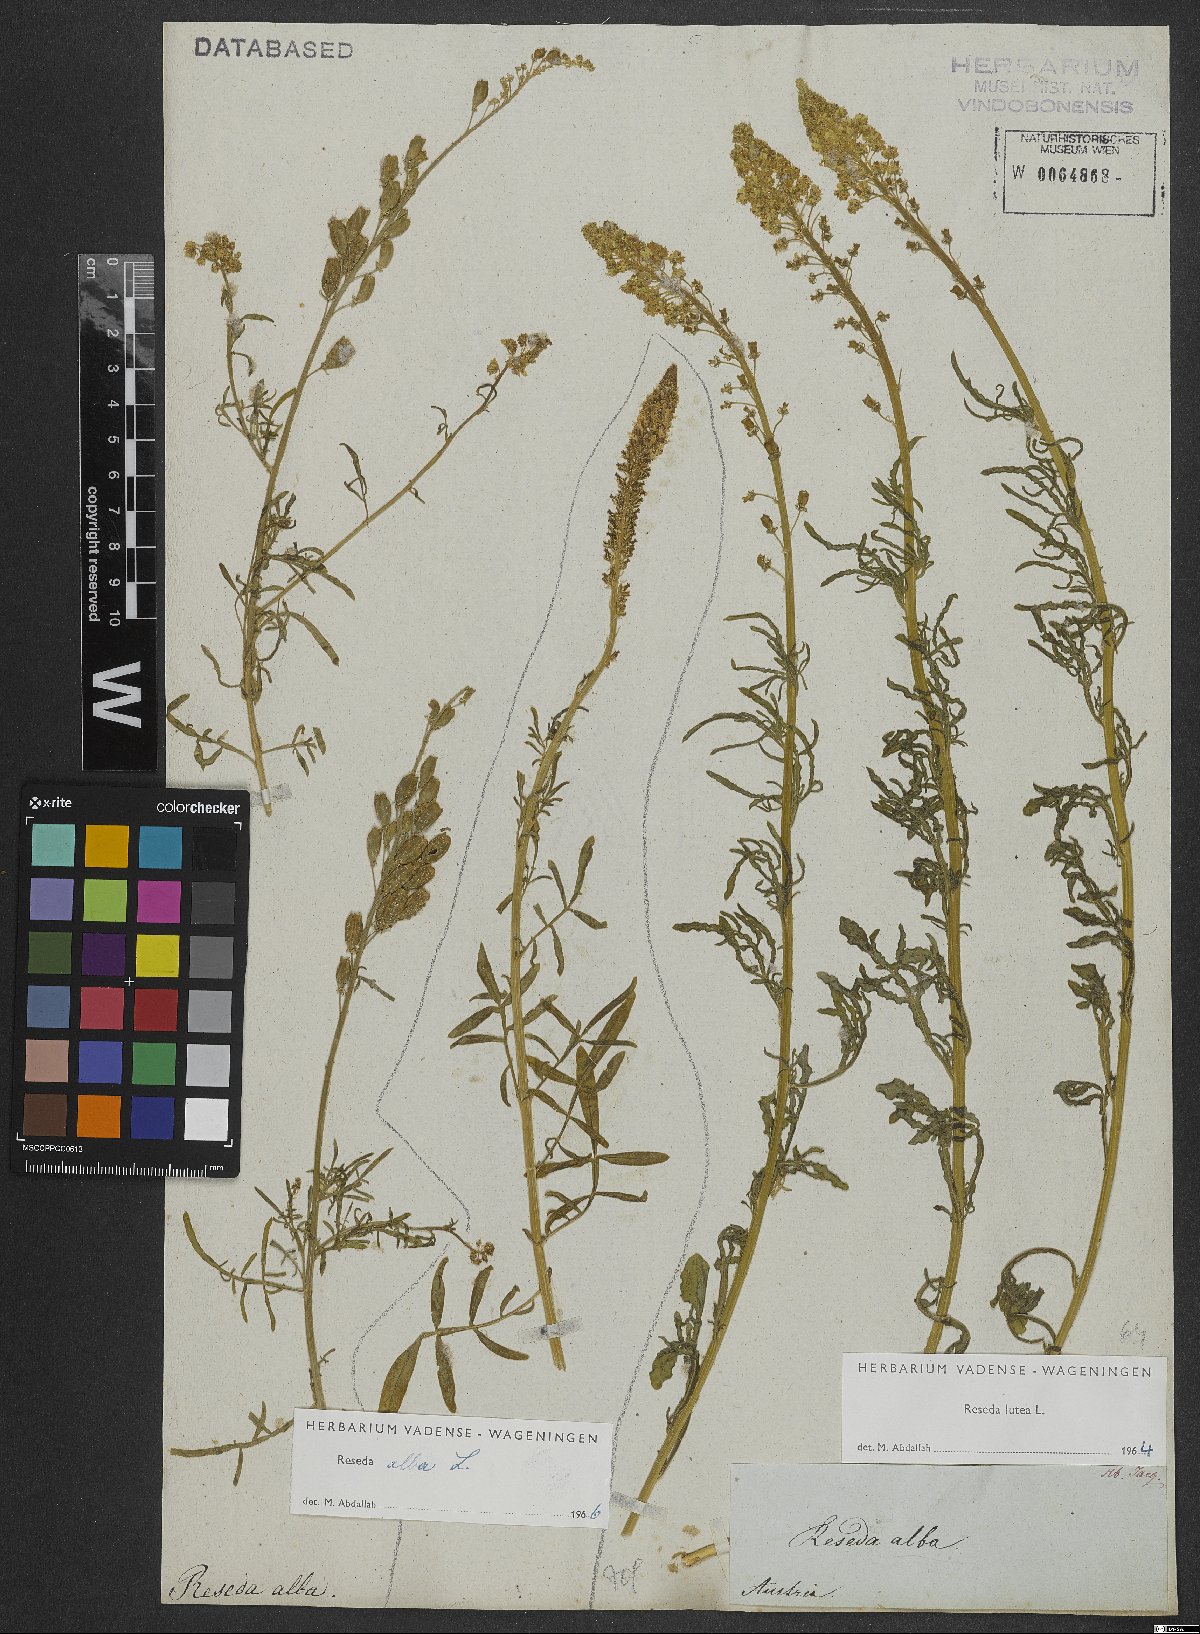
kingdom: Plantae
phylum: Tracheophyta
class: Magnoliopsida
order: Brassicales
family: Resedaceae
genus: Reseda
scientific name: Reseda lutea
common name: Wild mignonette
